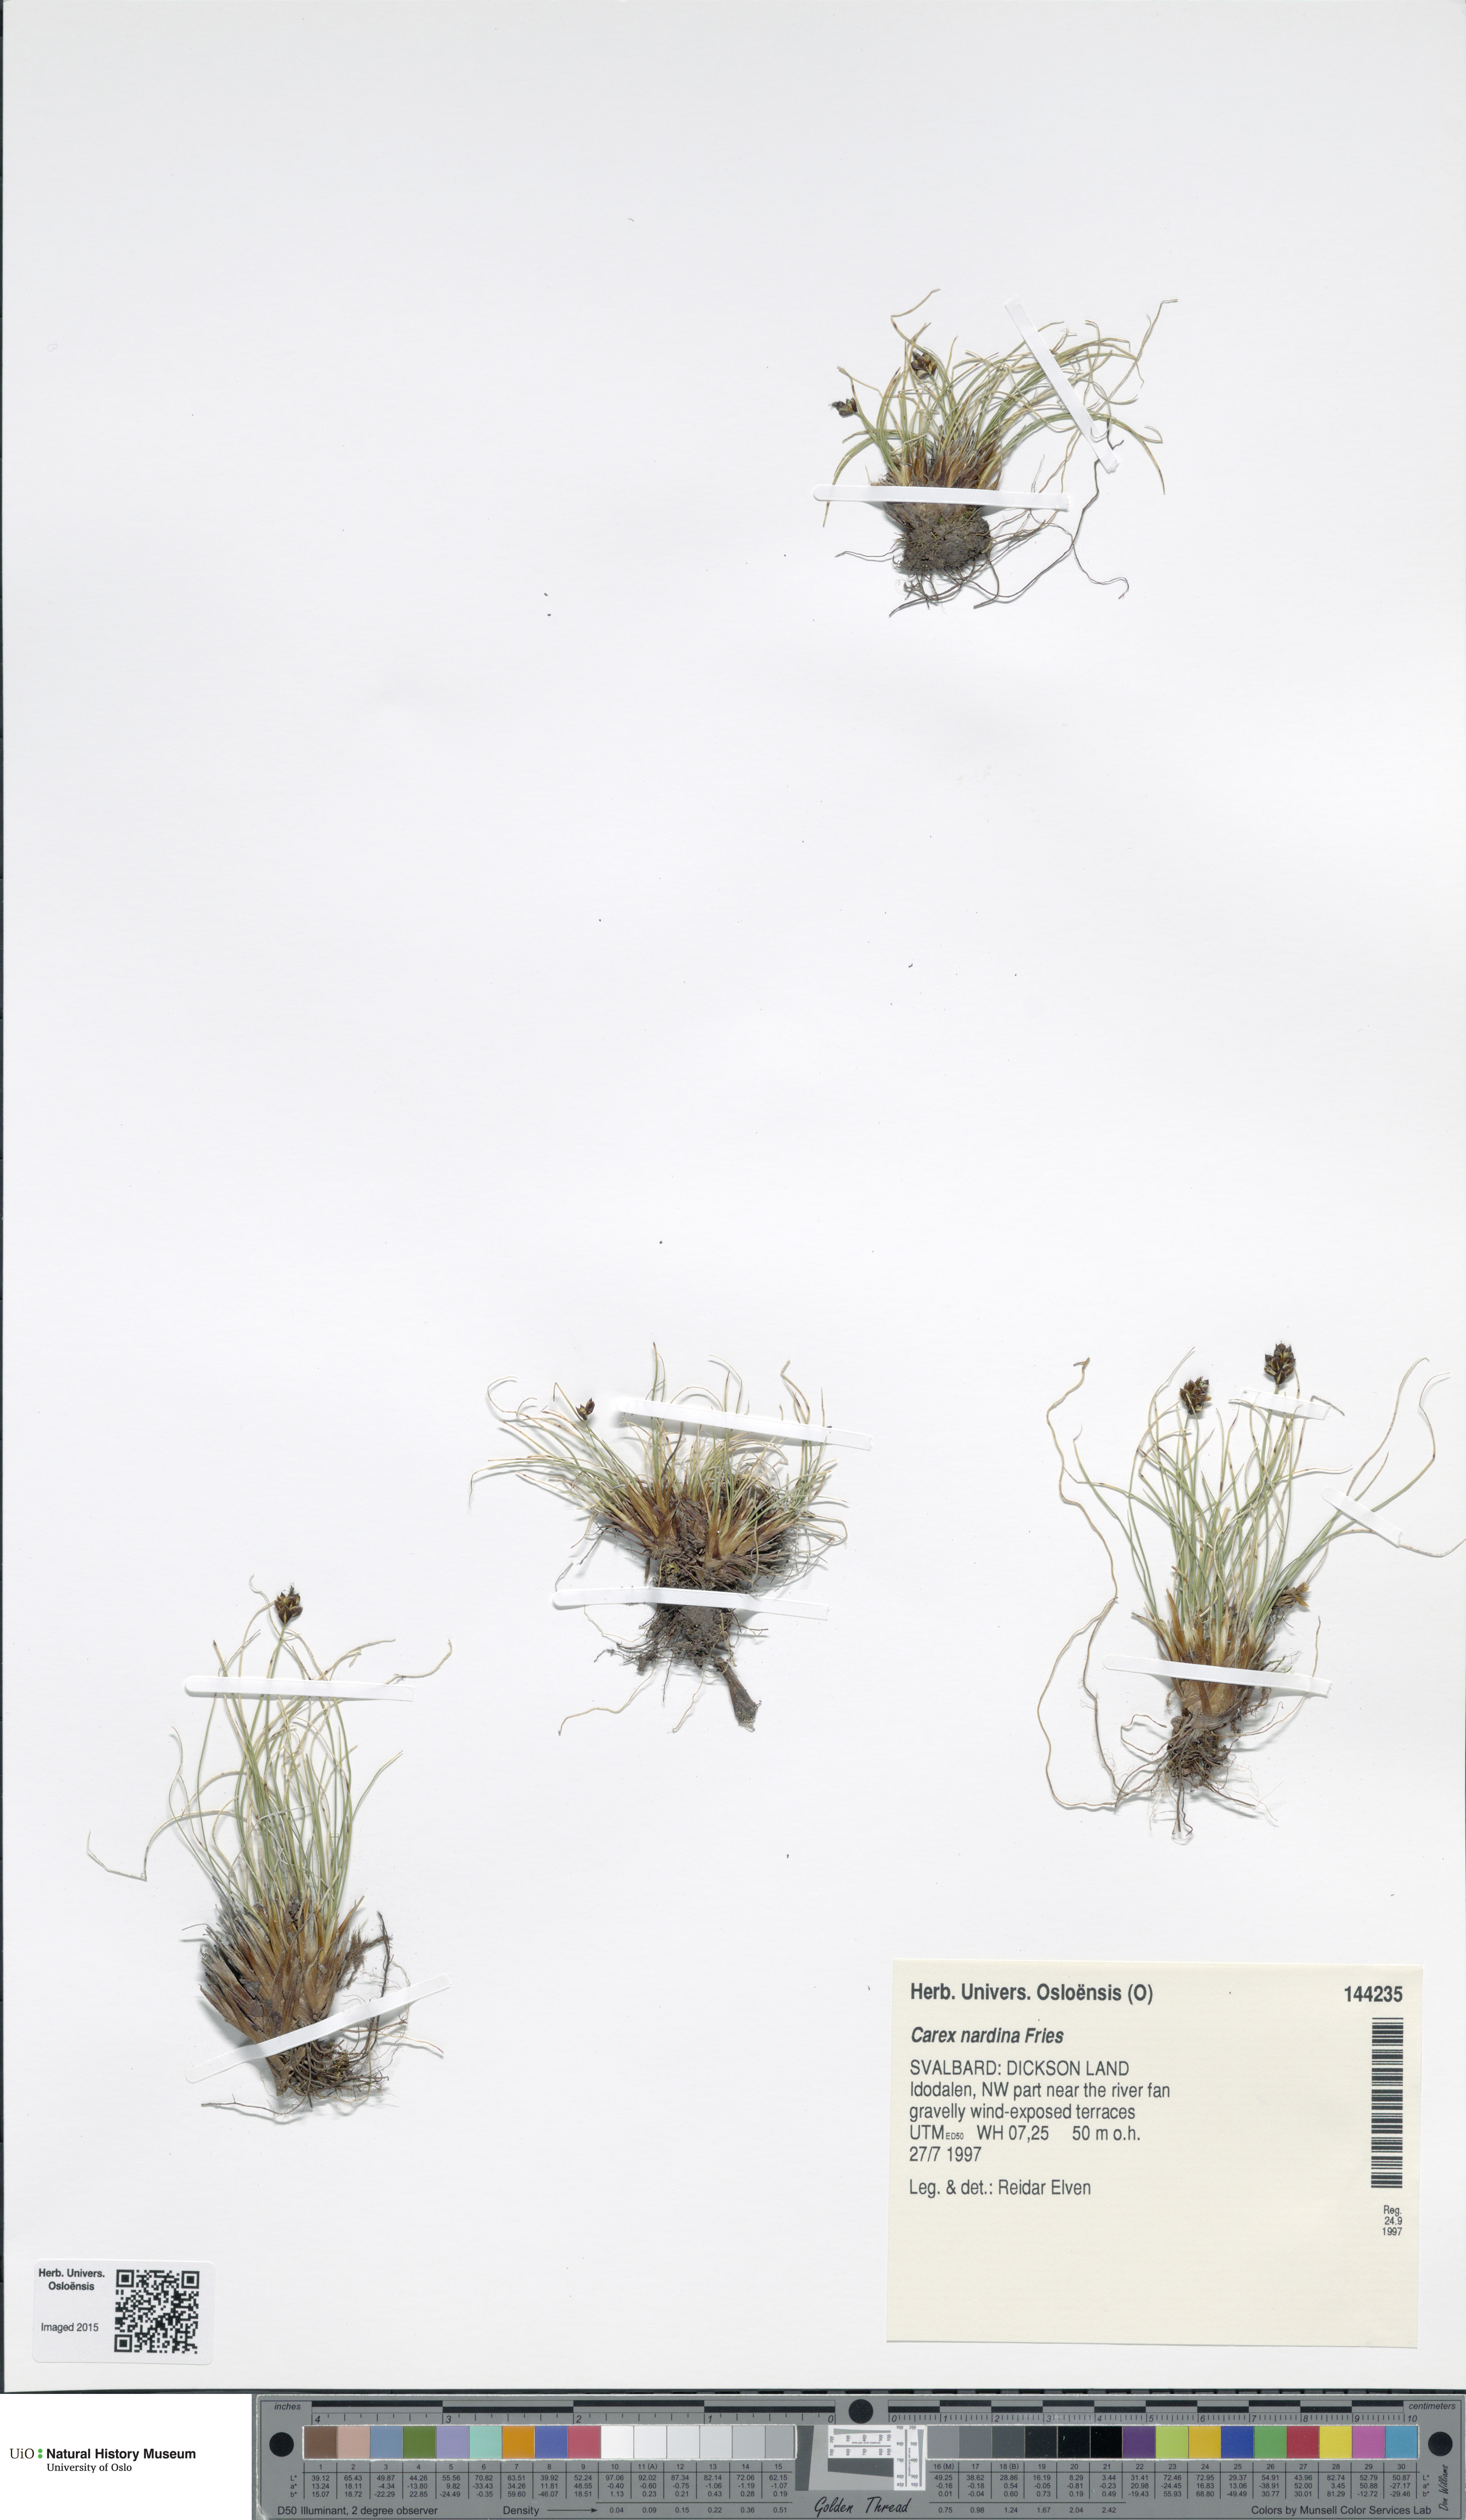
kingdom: Plantae
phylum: Tracheophyta
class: Liliopsida
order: Poales
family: Cyperaceae
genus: Carex
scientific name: Carex nardina
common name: Nard sedge
